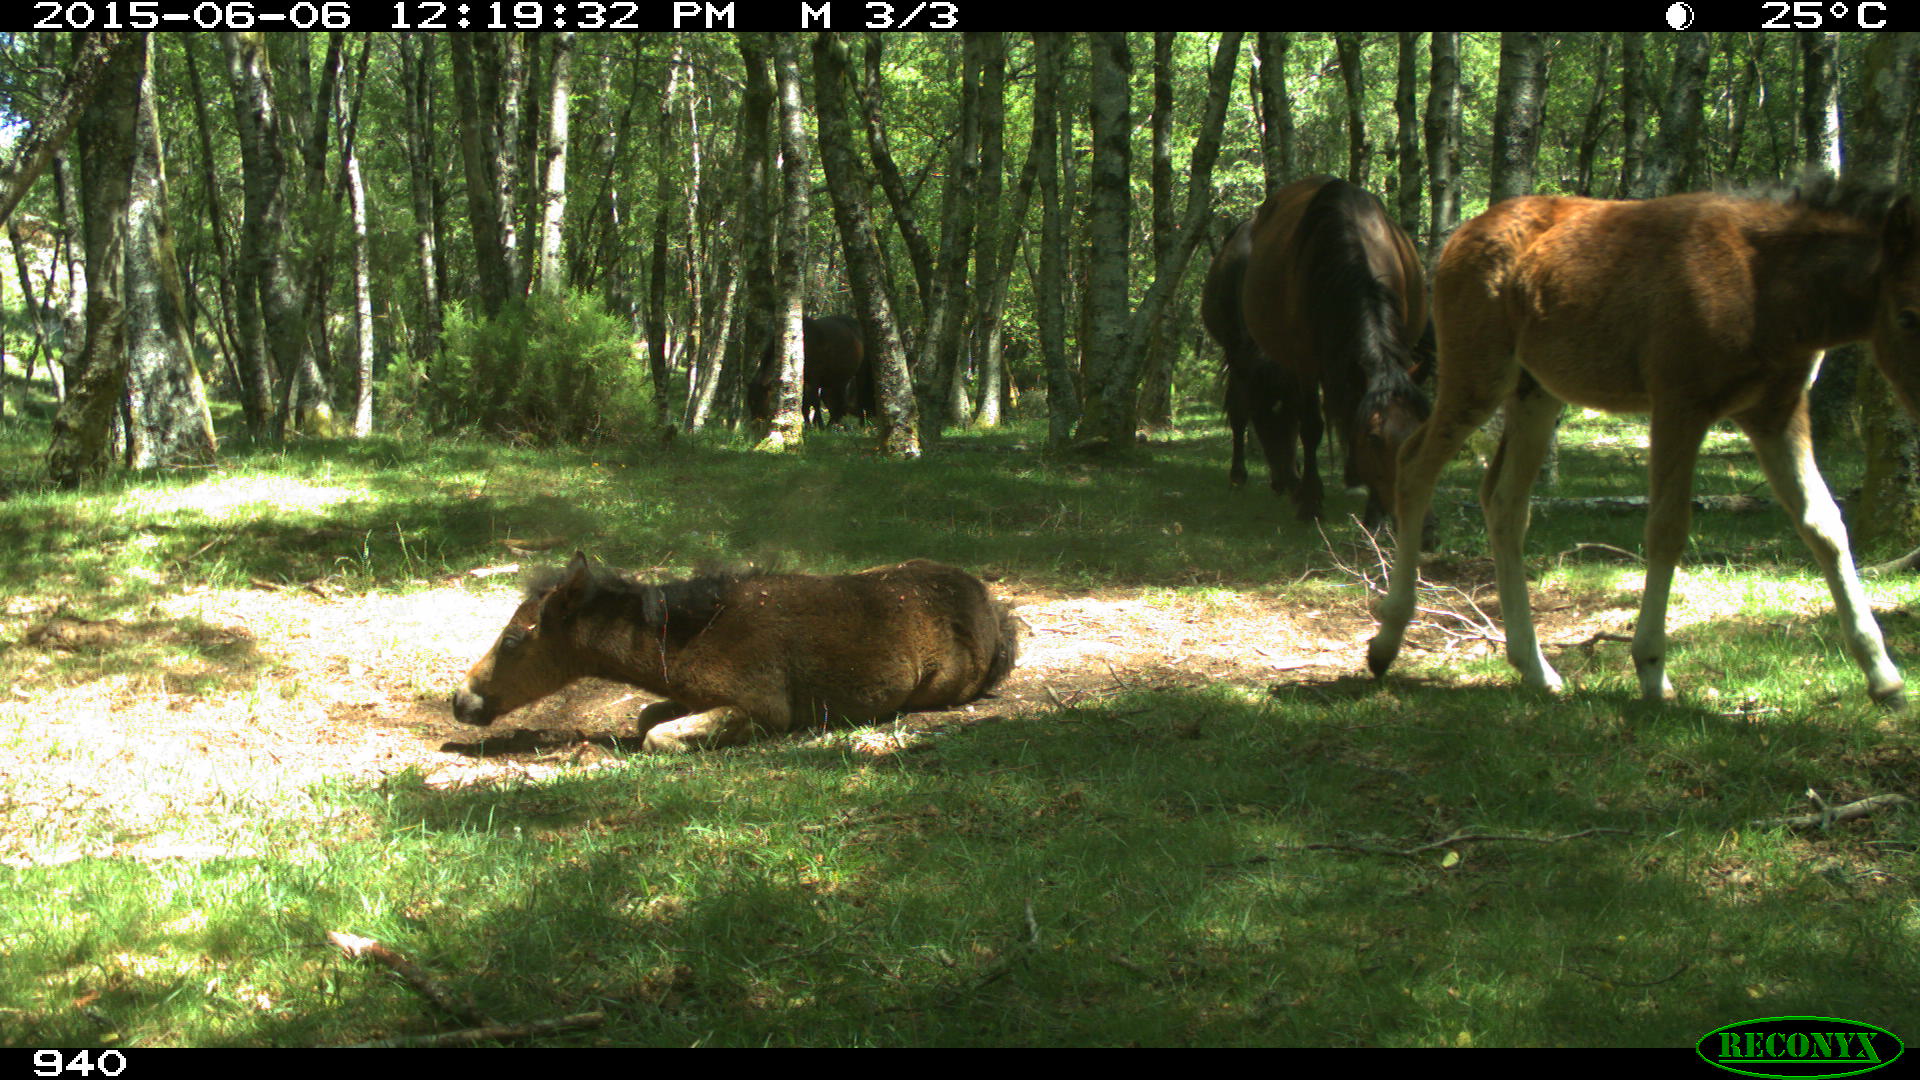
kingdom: Animalia
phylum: Chordata
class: Mammalia
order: Perissodactyla
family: Equidae
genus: Equus
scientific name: Equus caballus
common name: Horse
